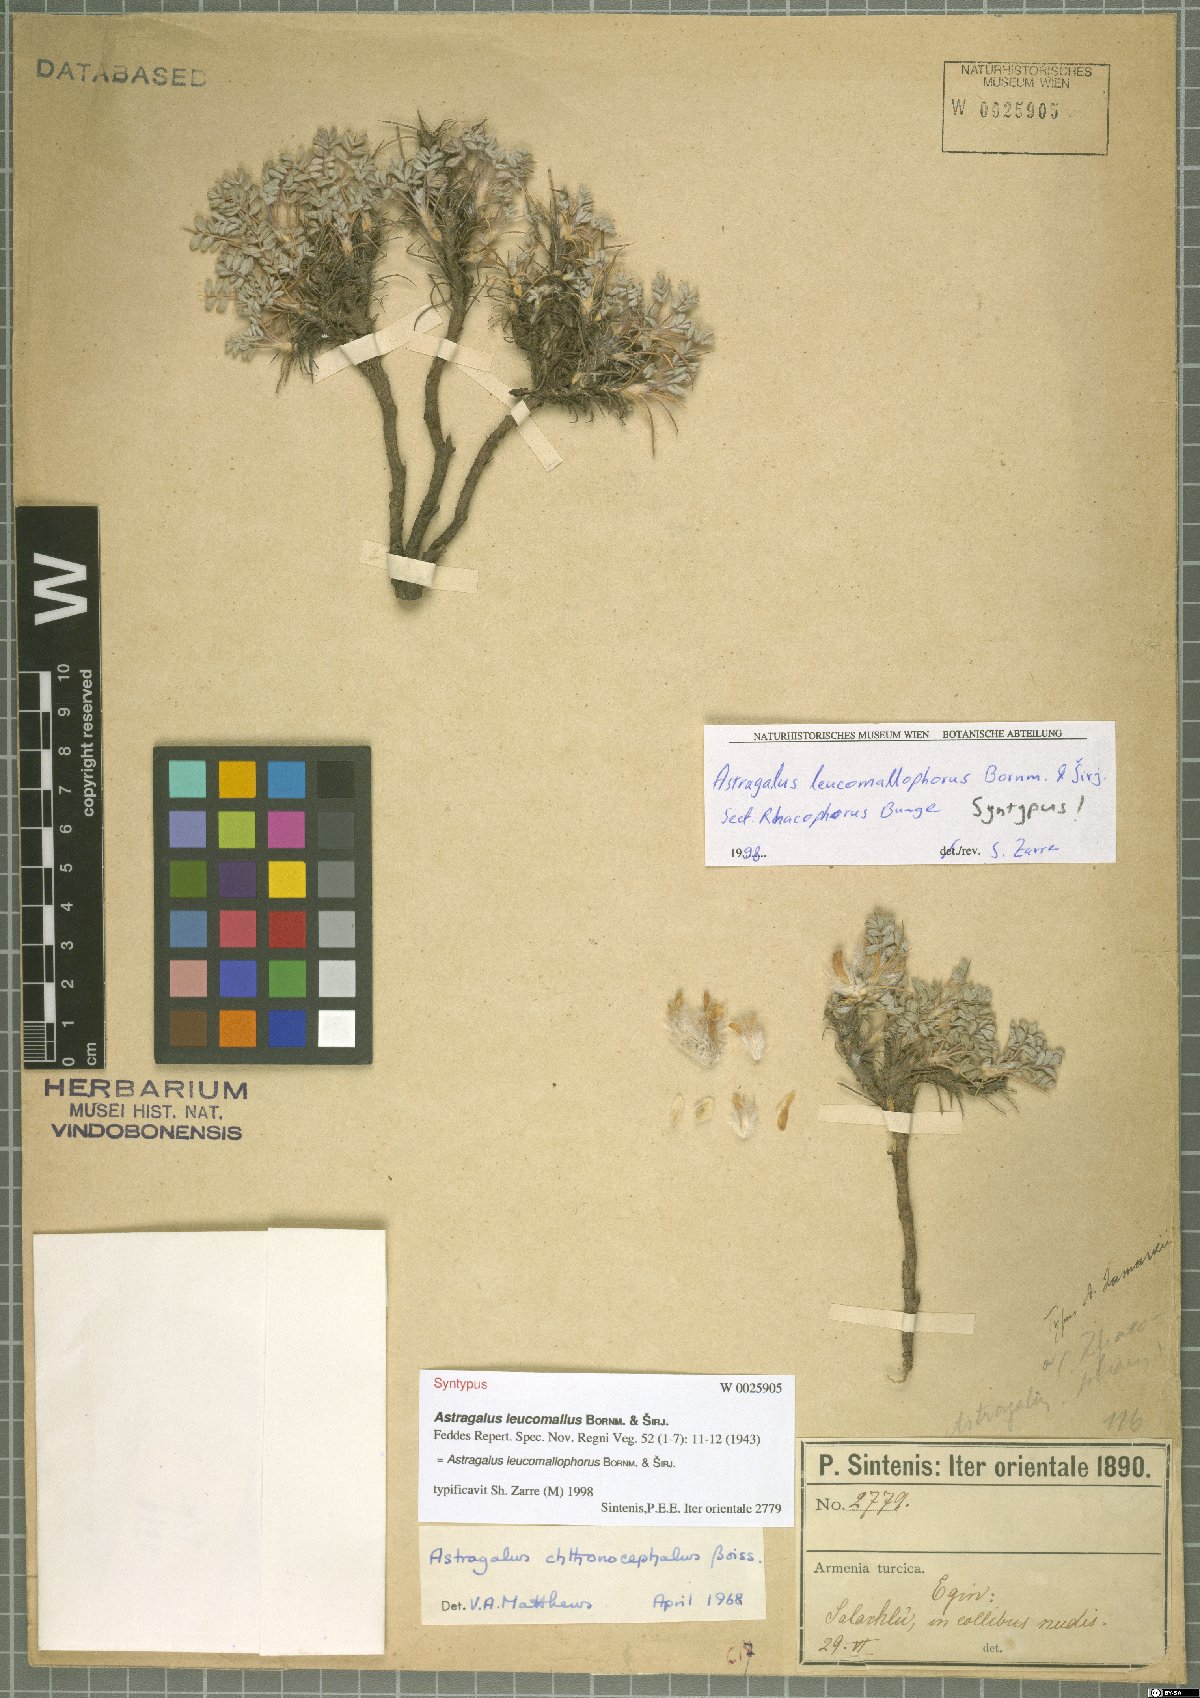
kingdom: Plantae
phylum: Tracheophyta
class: Magnoliopsida
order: Fabales
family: Fabaceae
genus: Astragalus
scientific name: Astragalus leucomallophorus
